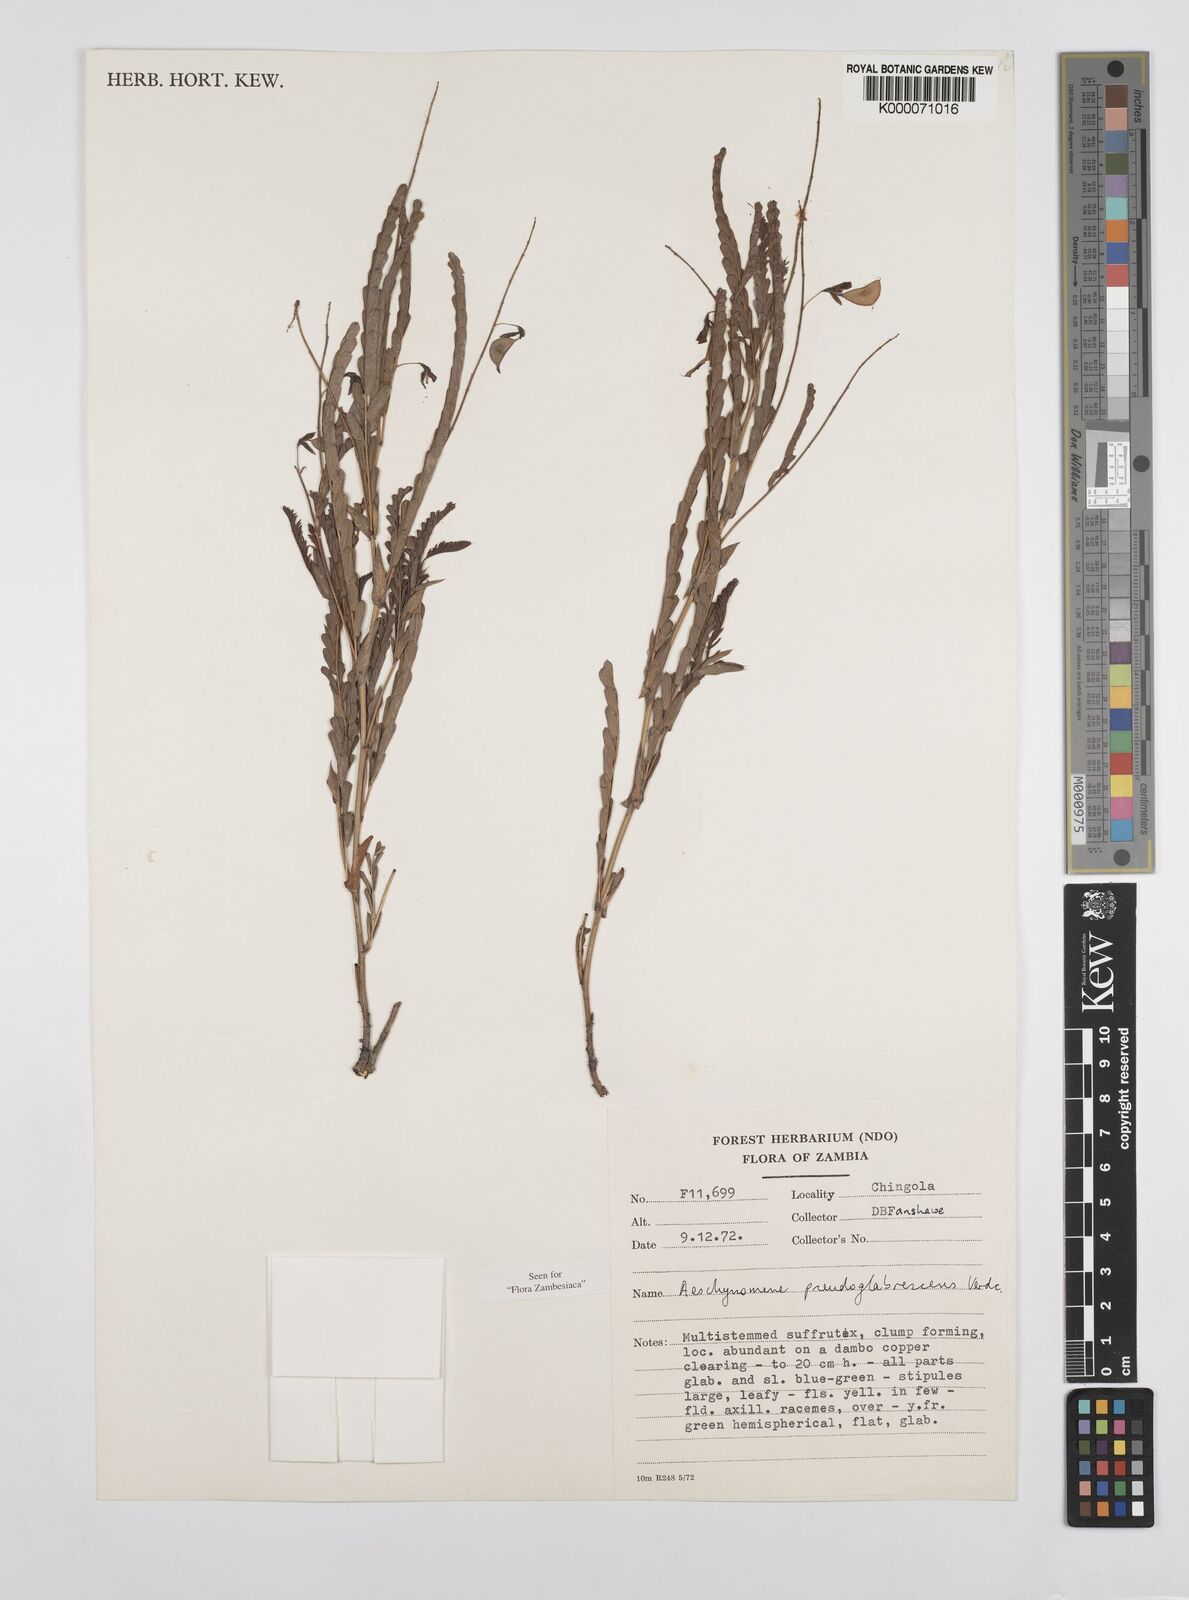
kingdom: Plantae
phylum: Tracheophyta
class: Magnoliopsida
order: Fabales
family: Fabaceae
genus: Aeschynomene
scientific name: Aeschynomene pseudoglabrescens
